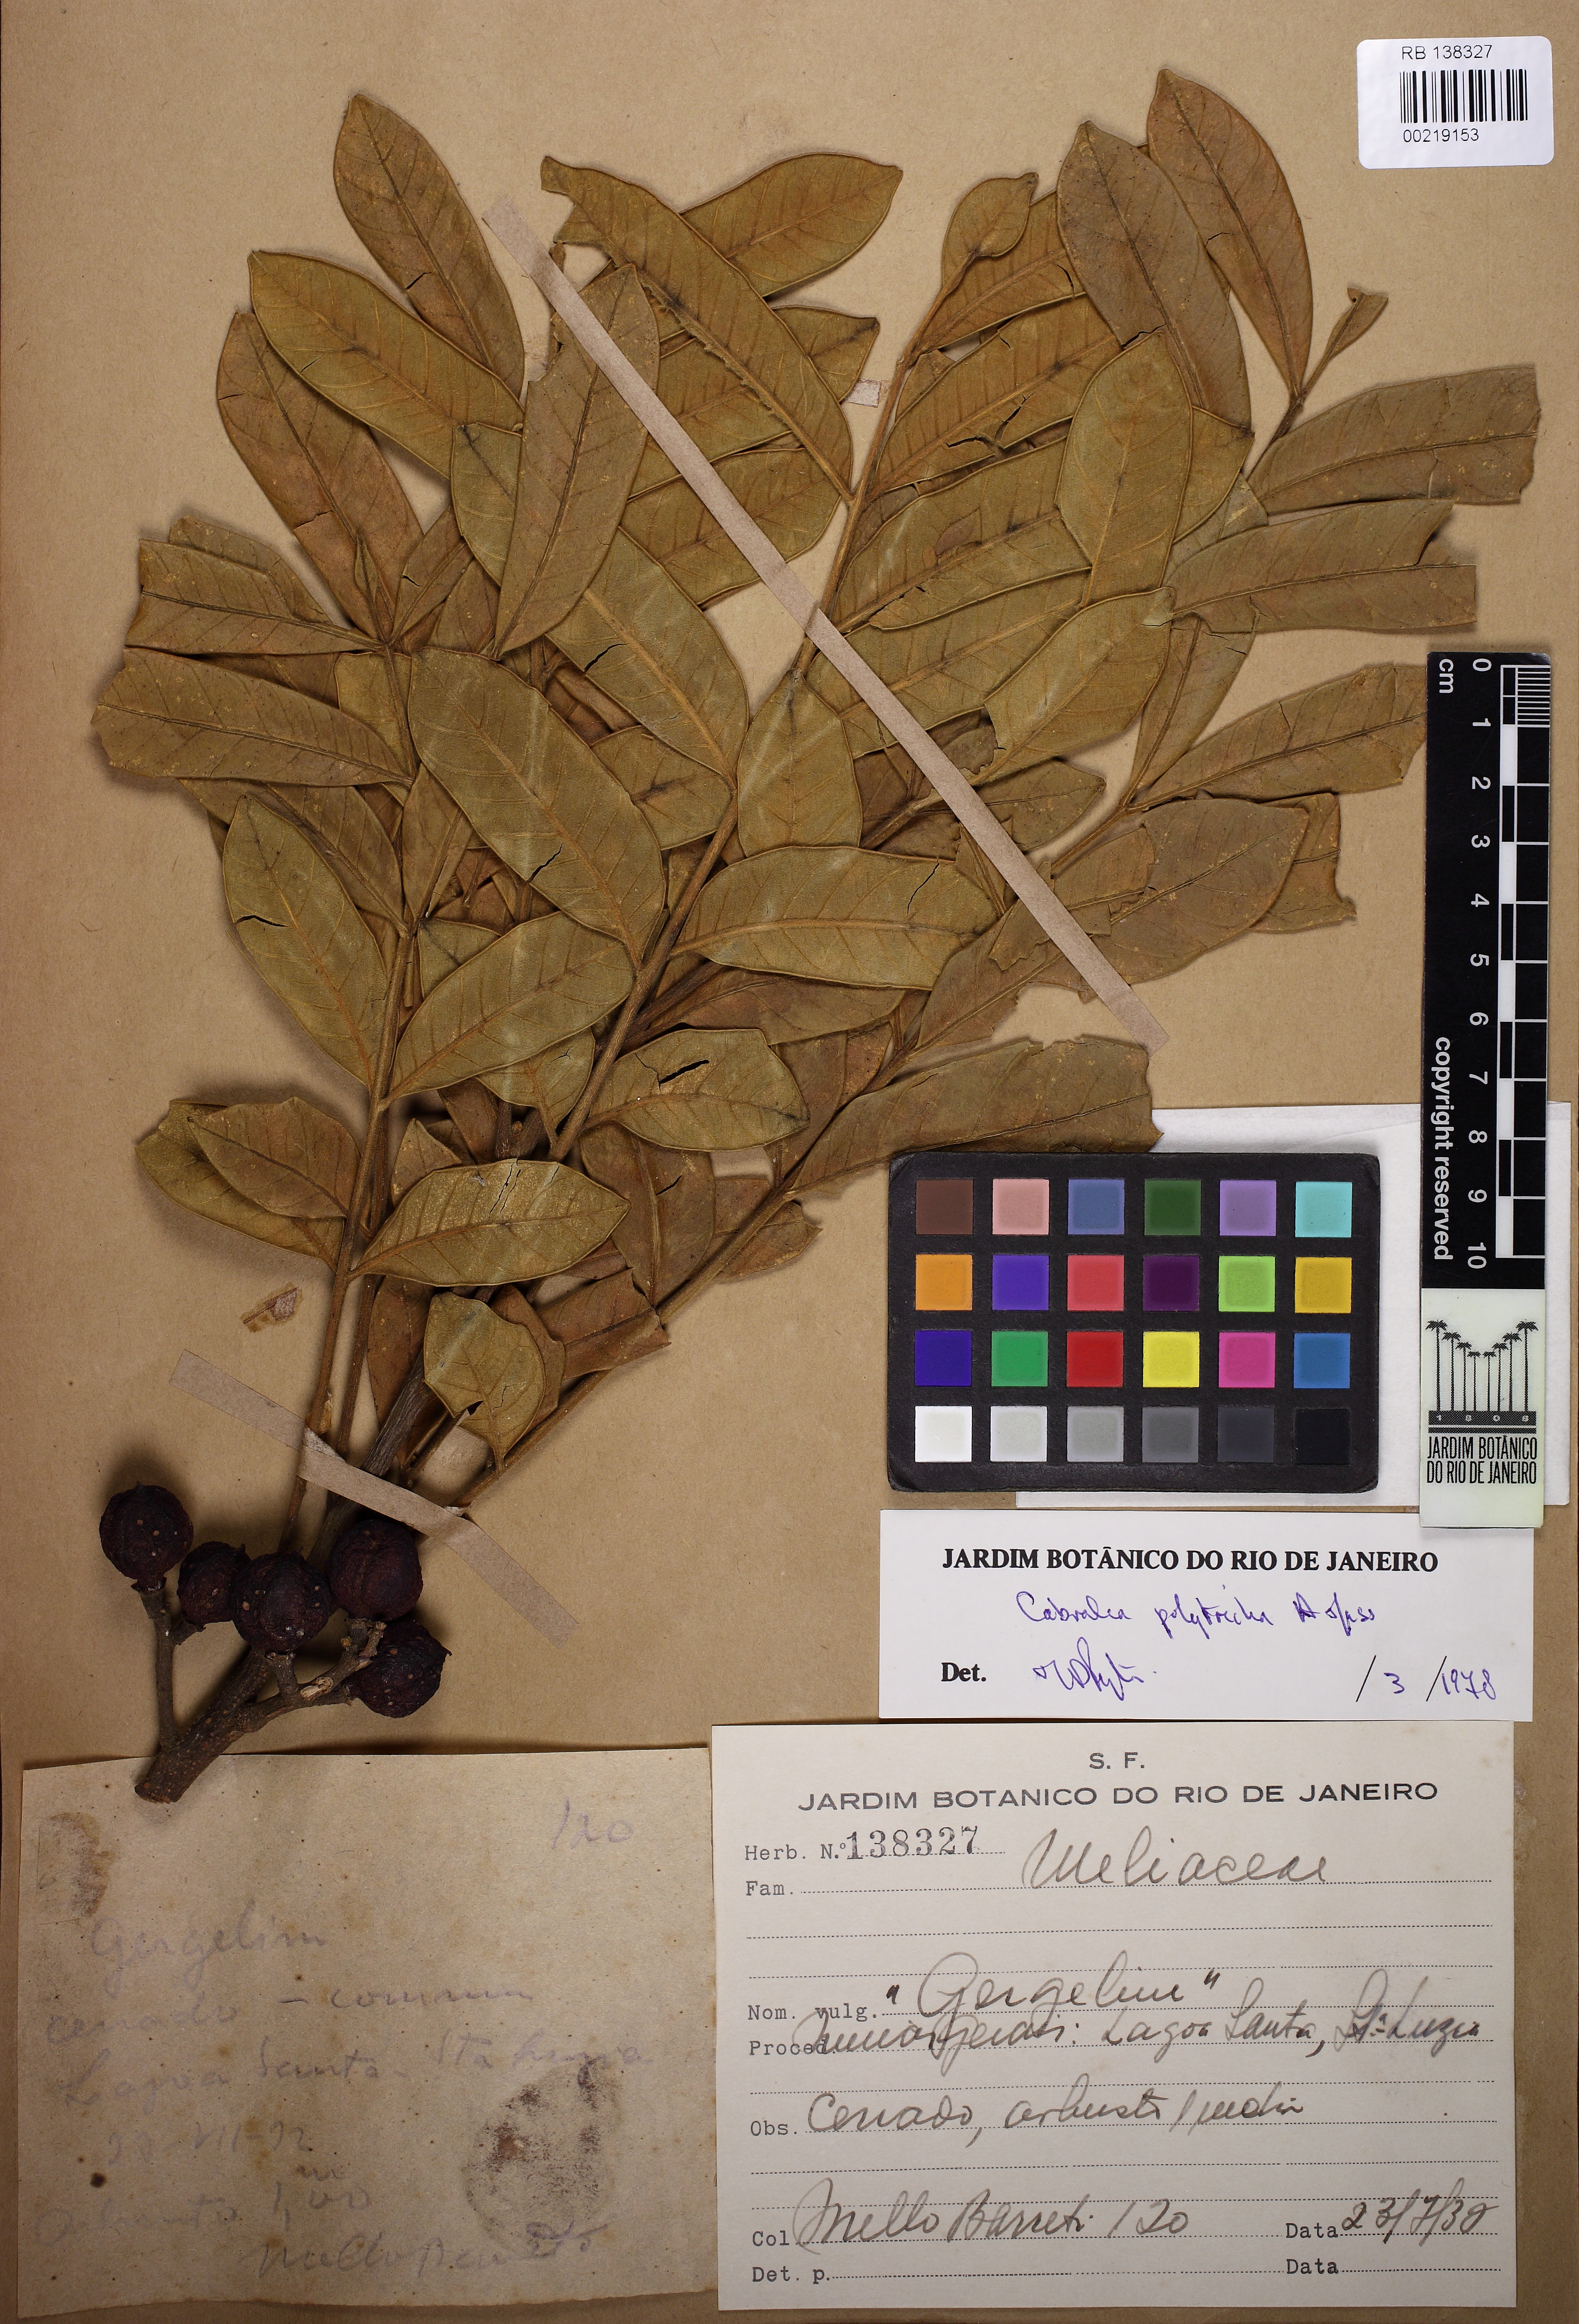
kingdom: Plantae
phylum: Tracheophyta
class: Magnoliopsida
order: Sapindales
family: Meliaceae
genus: Cabralea
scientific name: Cabralea canjerana
